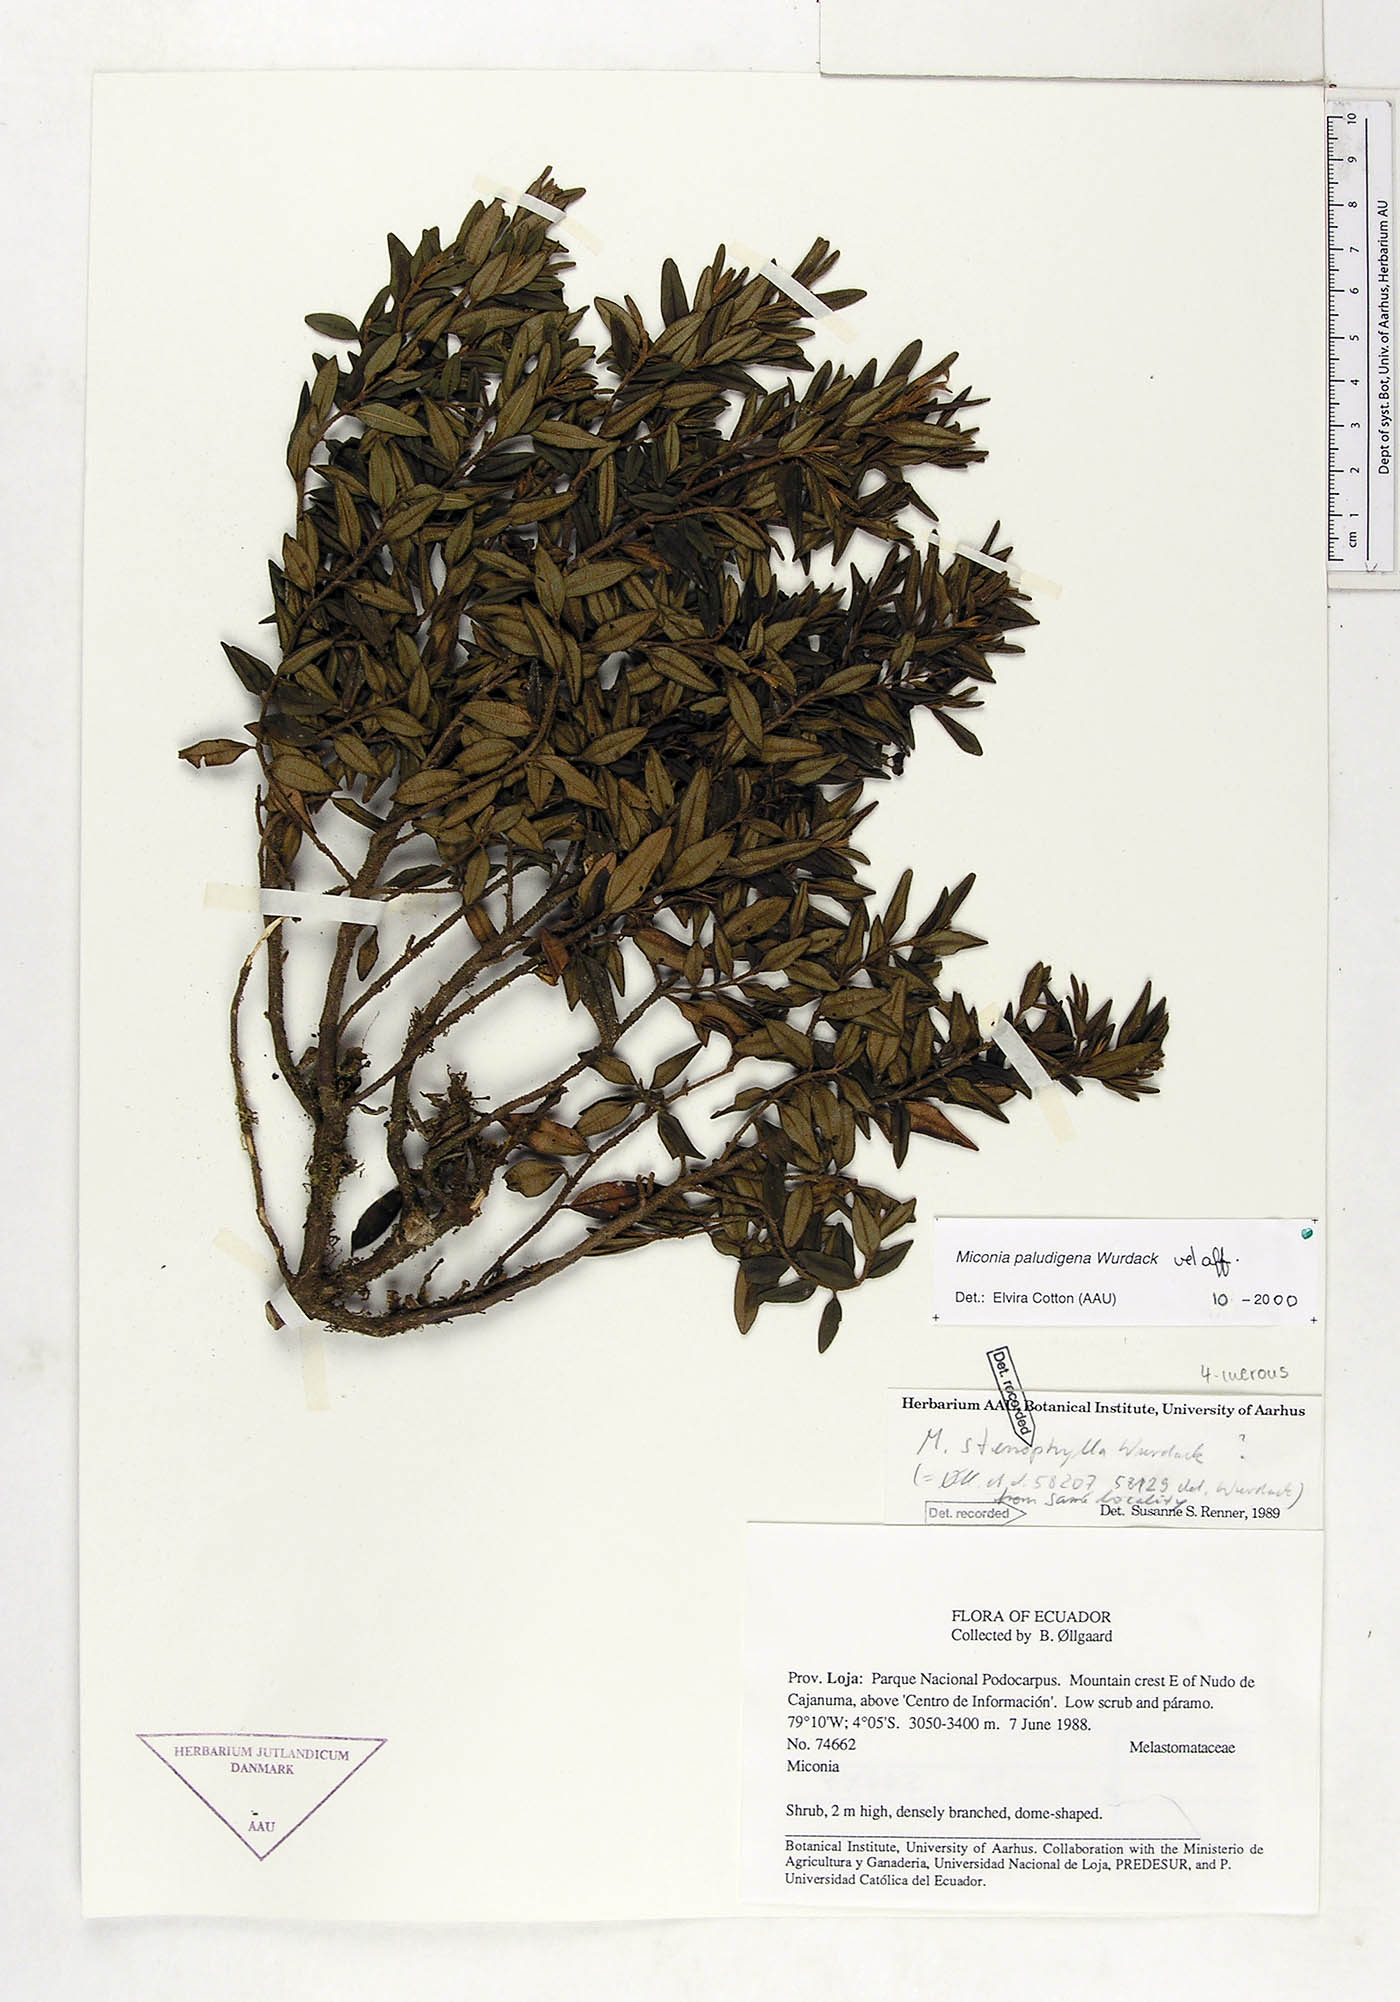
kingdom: Plantae
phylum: Tracheophyta
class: Magnoliopsida
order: Myrtales
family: Melastomataceae
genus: Miconia
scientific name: Miconia paludigena
